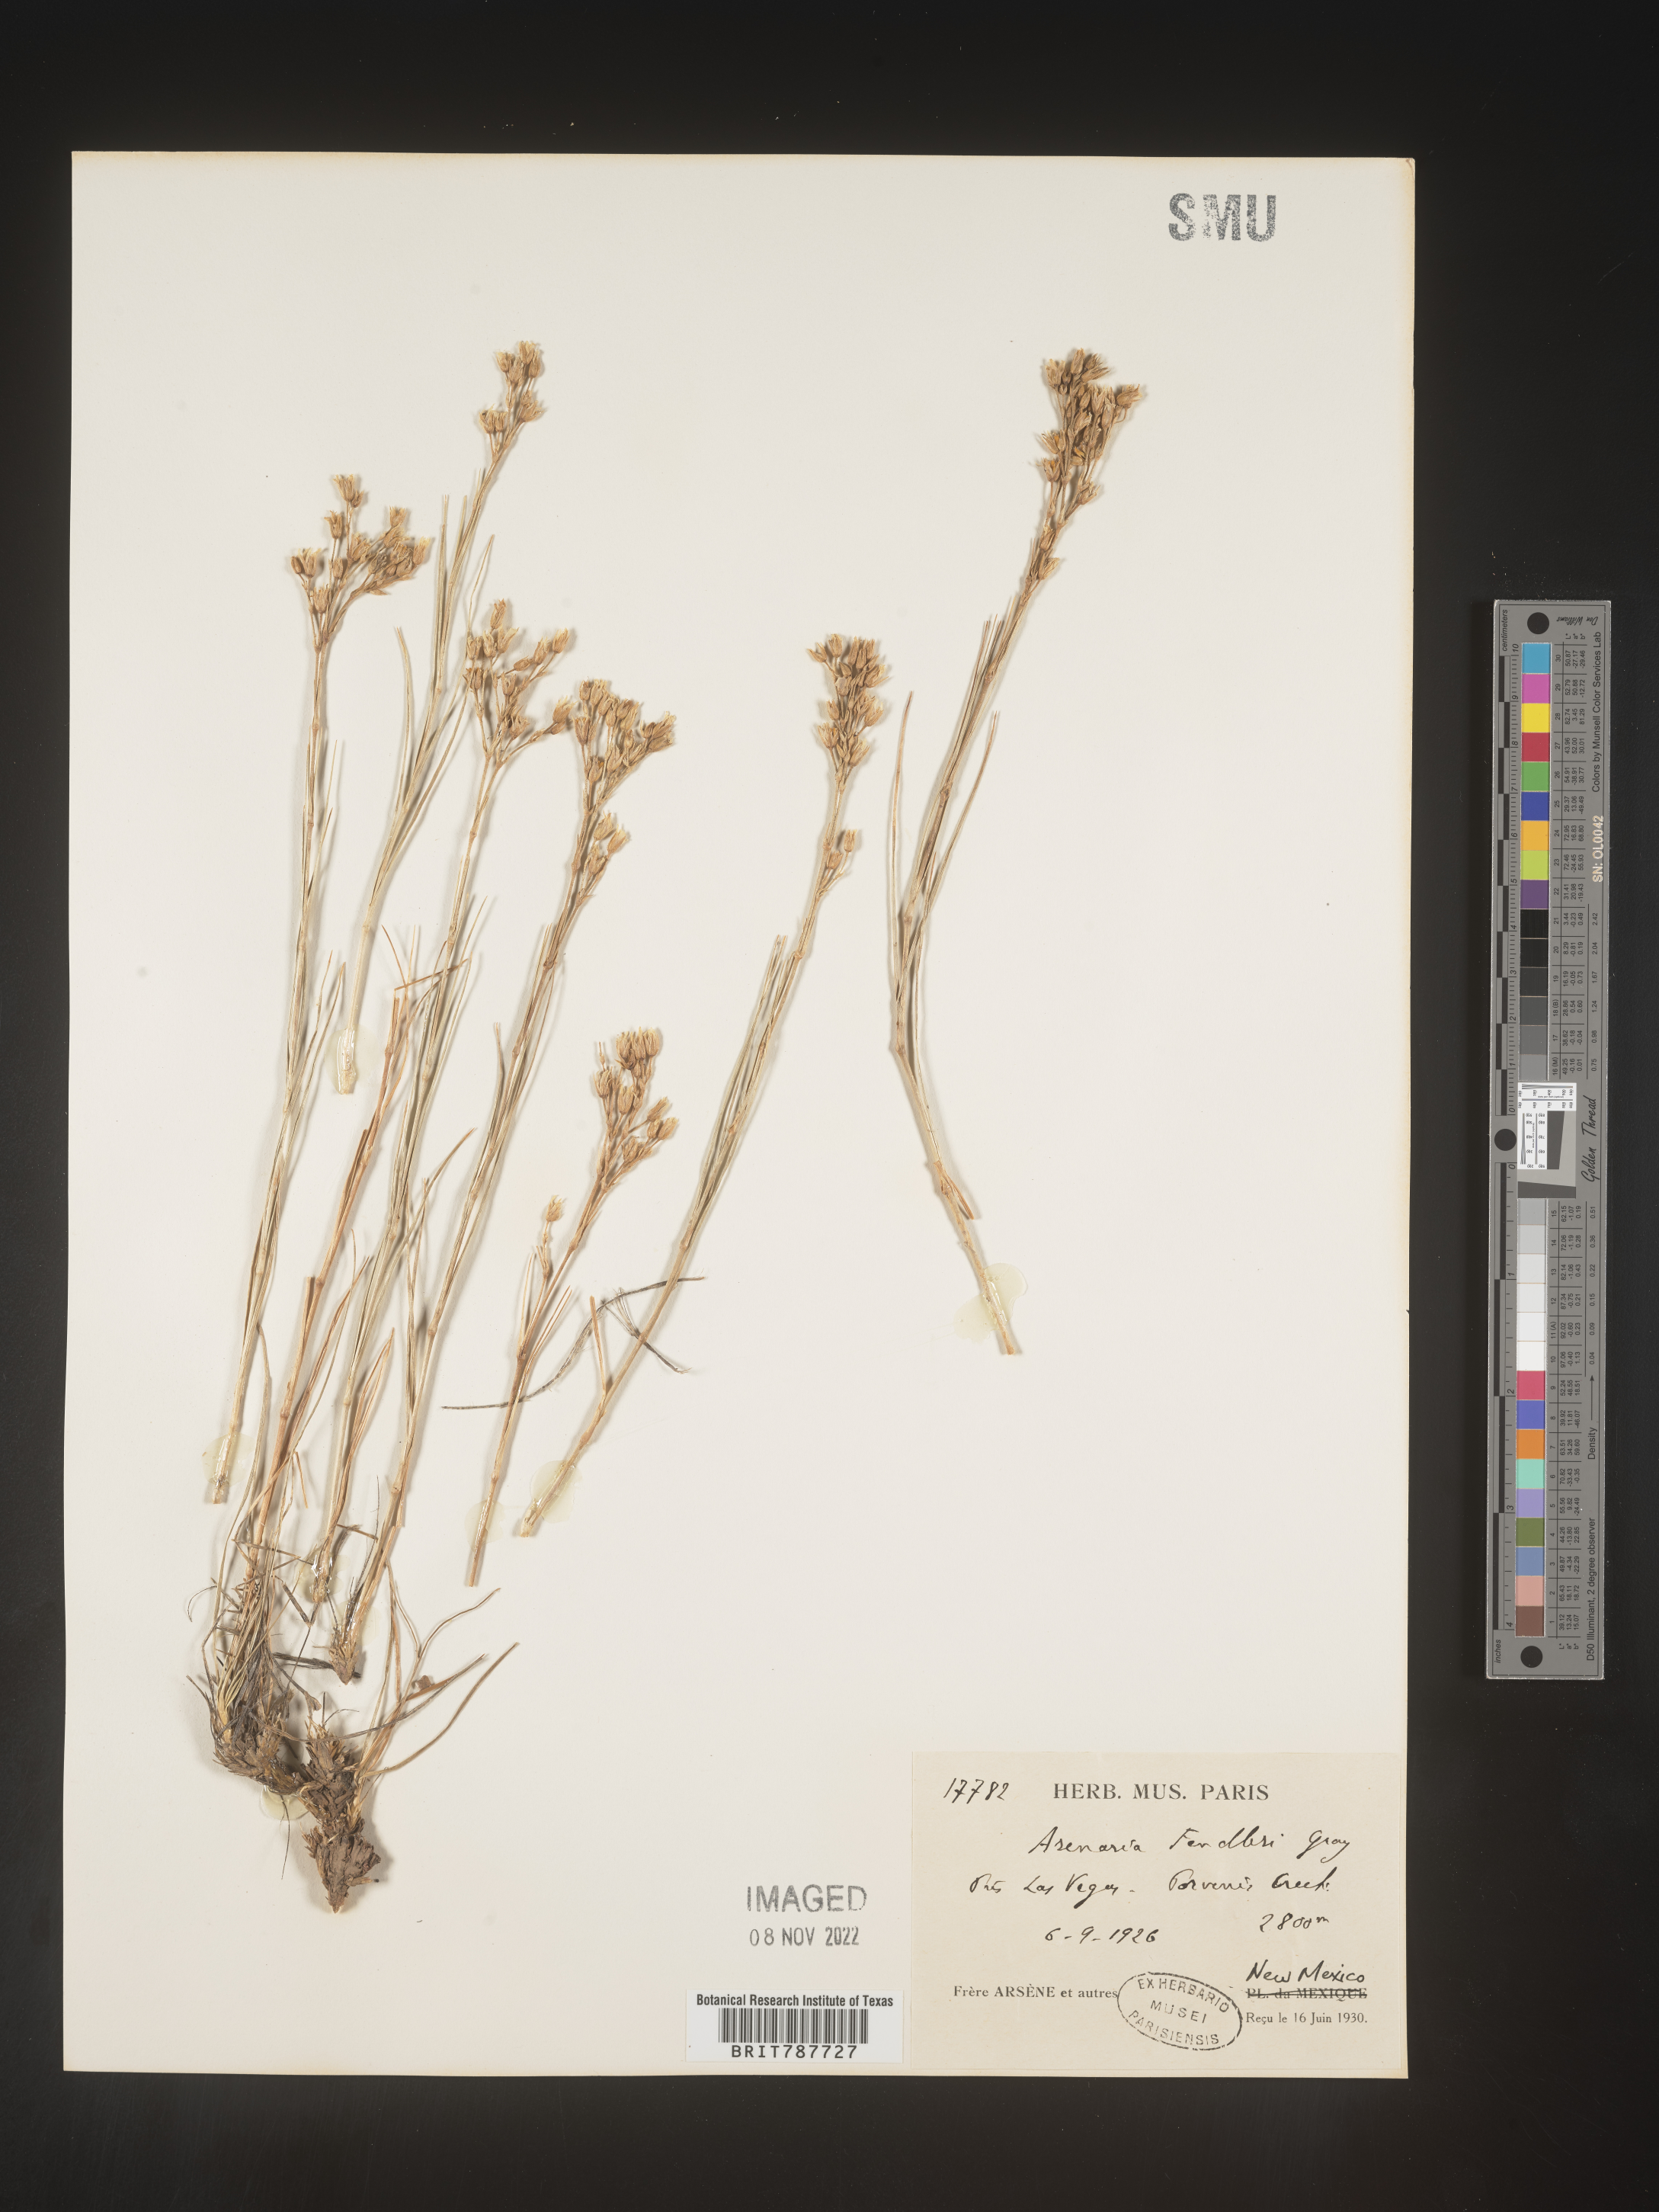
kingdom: Plantae
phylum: Tracheophyta
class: Magnoliopsida
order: Caryophyllales
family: Caryophyllaceae
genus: Arenaria
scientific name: Arenaria
